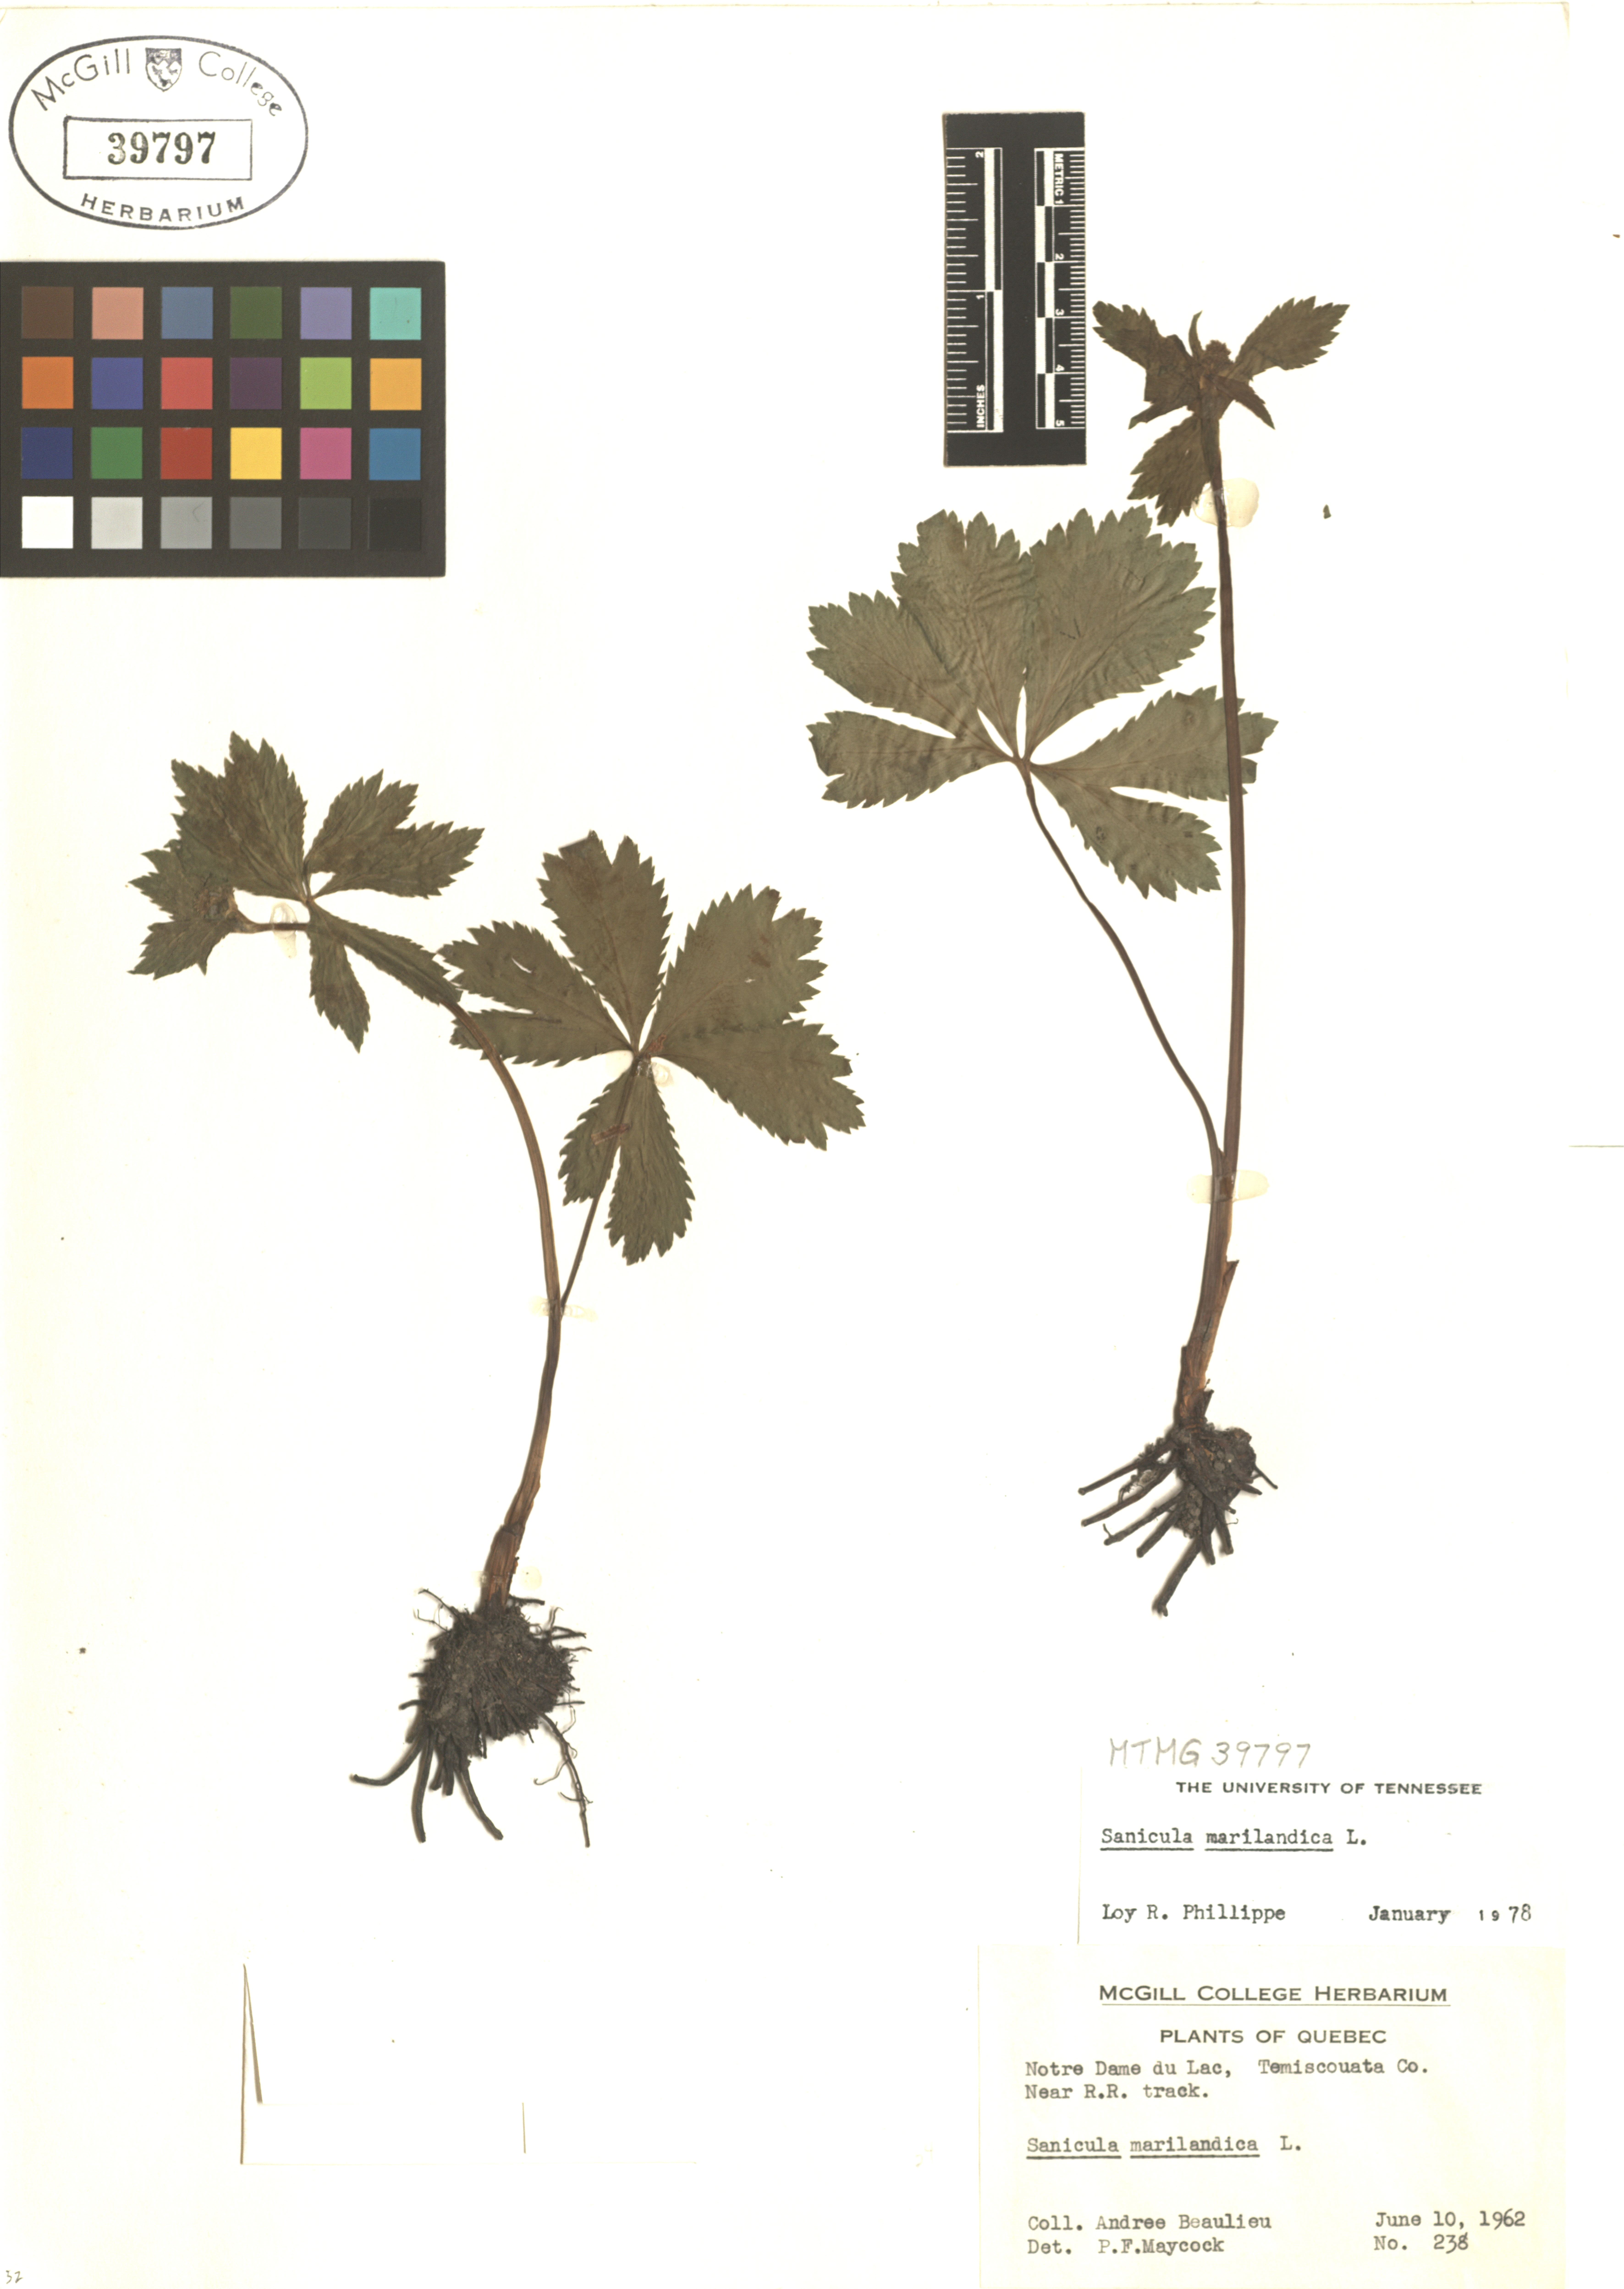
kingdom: Plantae
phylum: Tracheophyta
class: Magnoliopsida
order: Apiales
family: Apiaceae
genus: Sanicula
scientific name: Sanicula marilandica
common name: Black snakeroot
